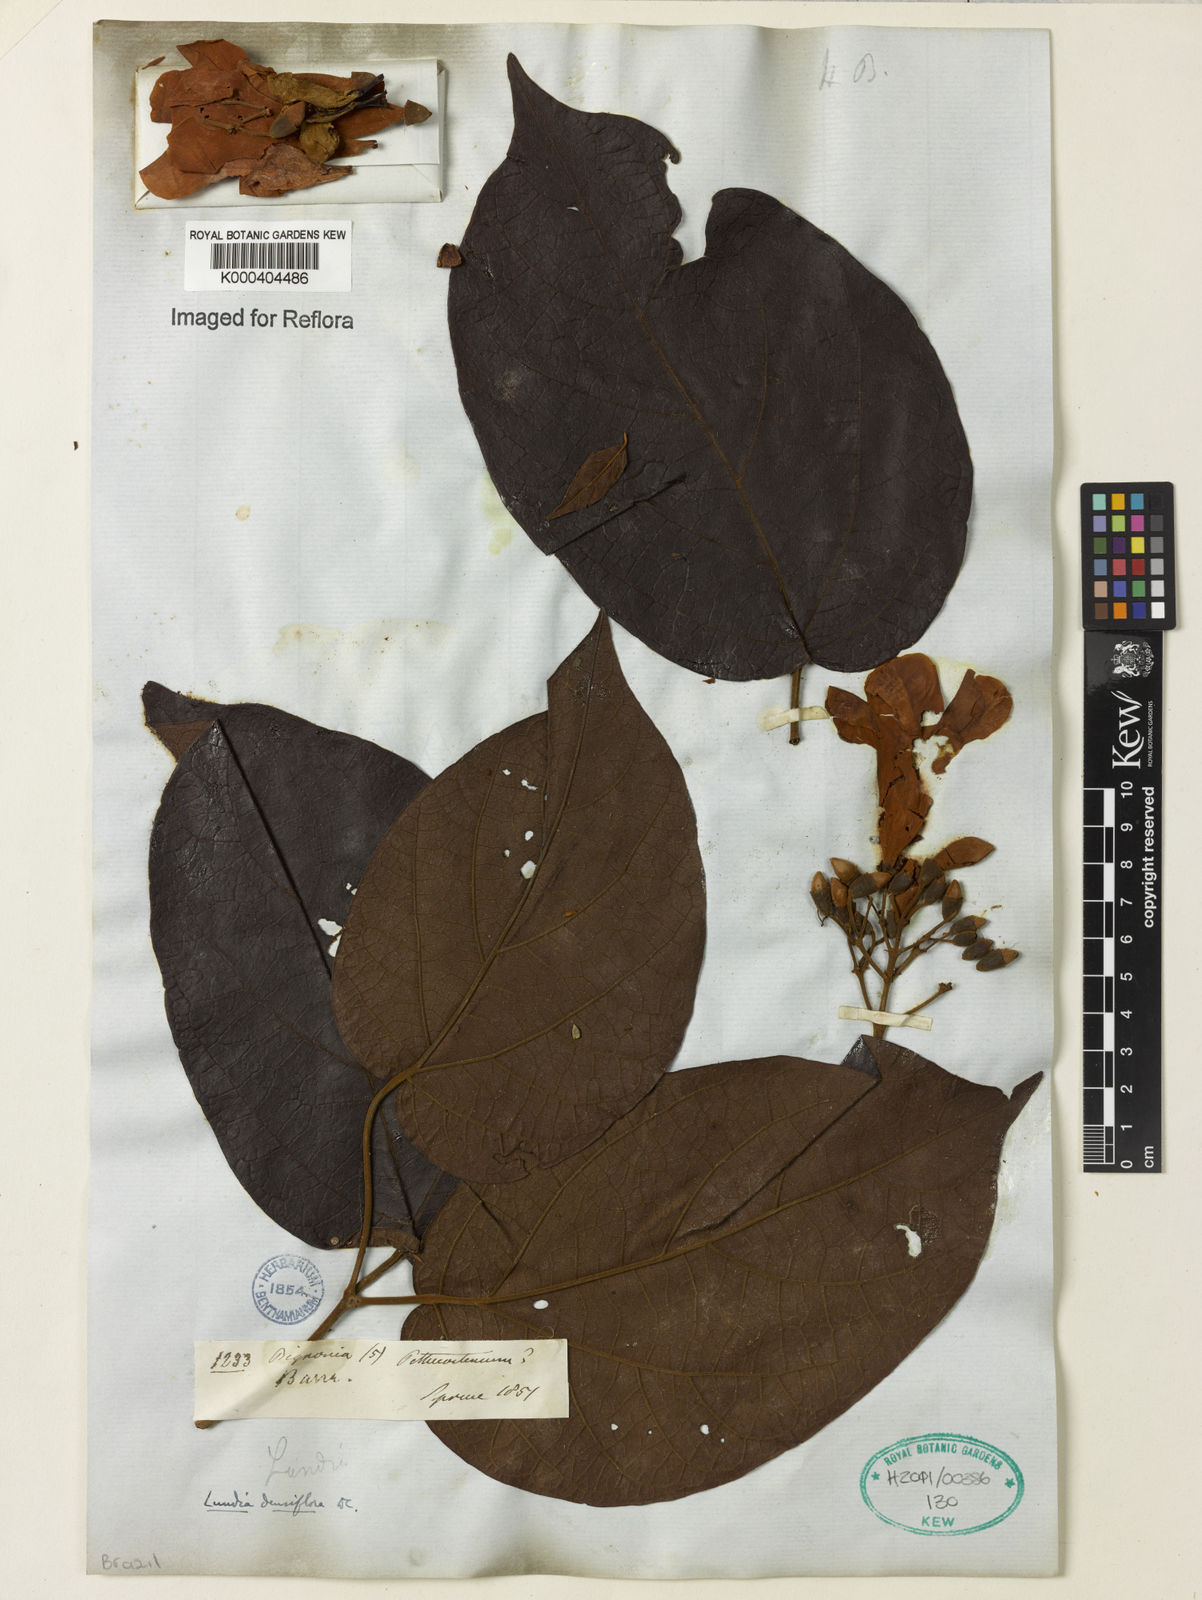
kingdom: Plantae
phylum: Tracheophyta
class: Magnoliopsida
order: Lamiales
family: Bignoniaceae
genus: Lundia
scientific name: Lundia densiflora
